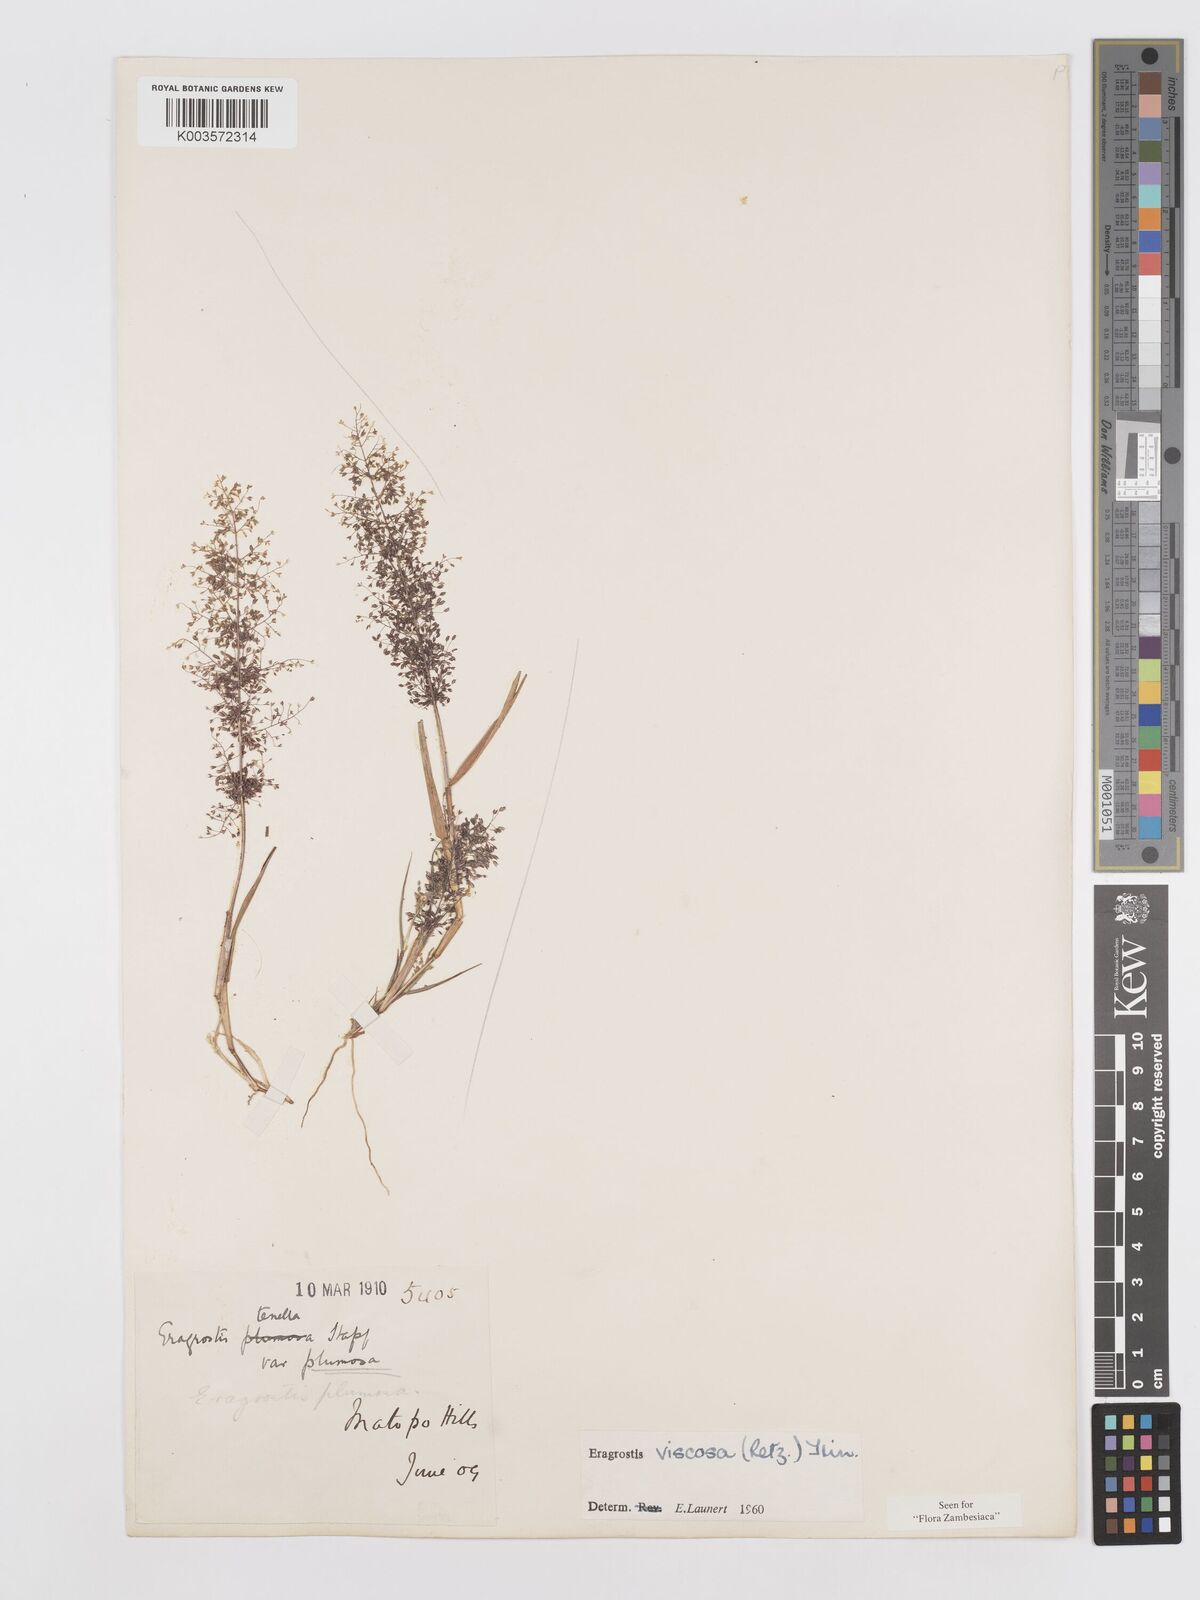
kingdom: Plantae
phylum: Tracheophyta
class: Liliopsida
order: Poales
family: Poaceae
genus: Eragrostis
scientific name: Eragrostis
